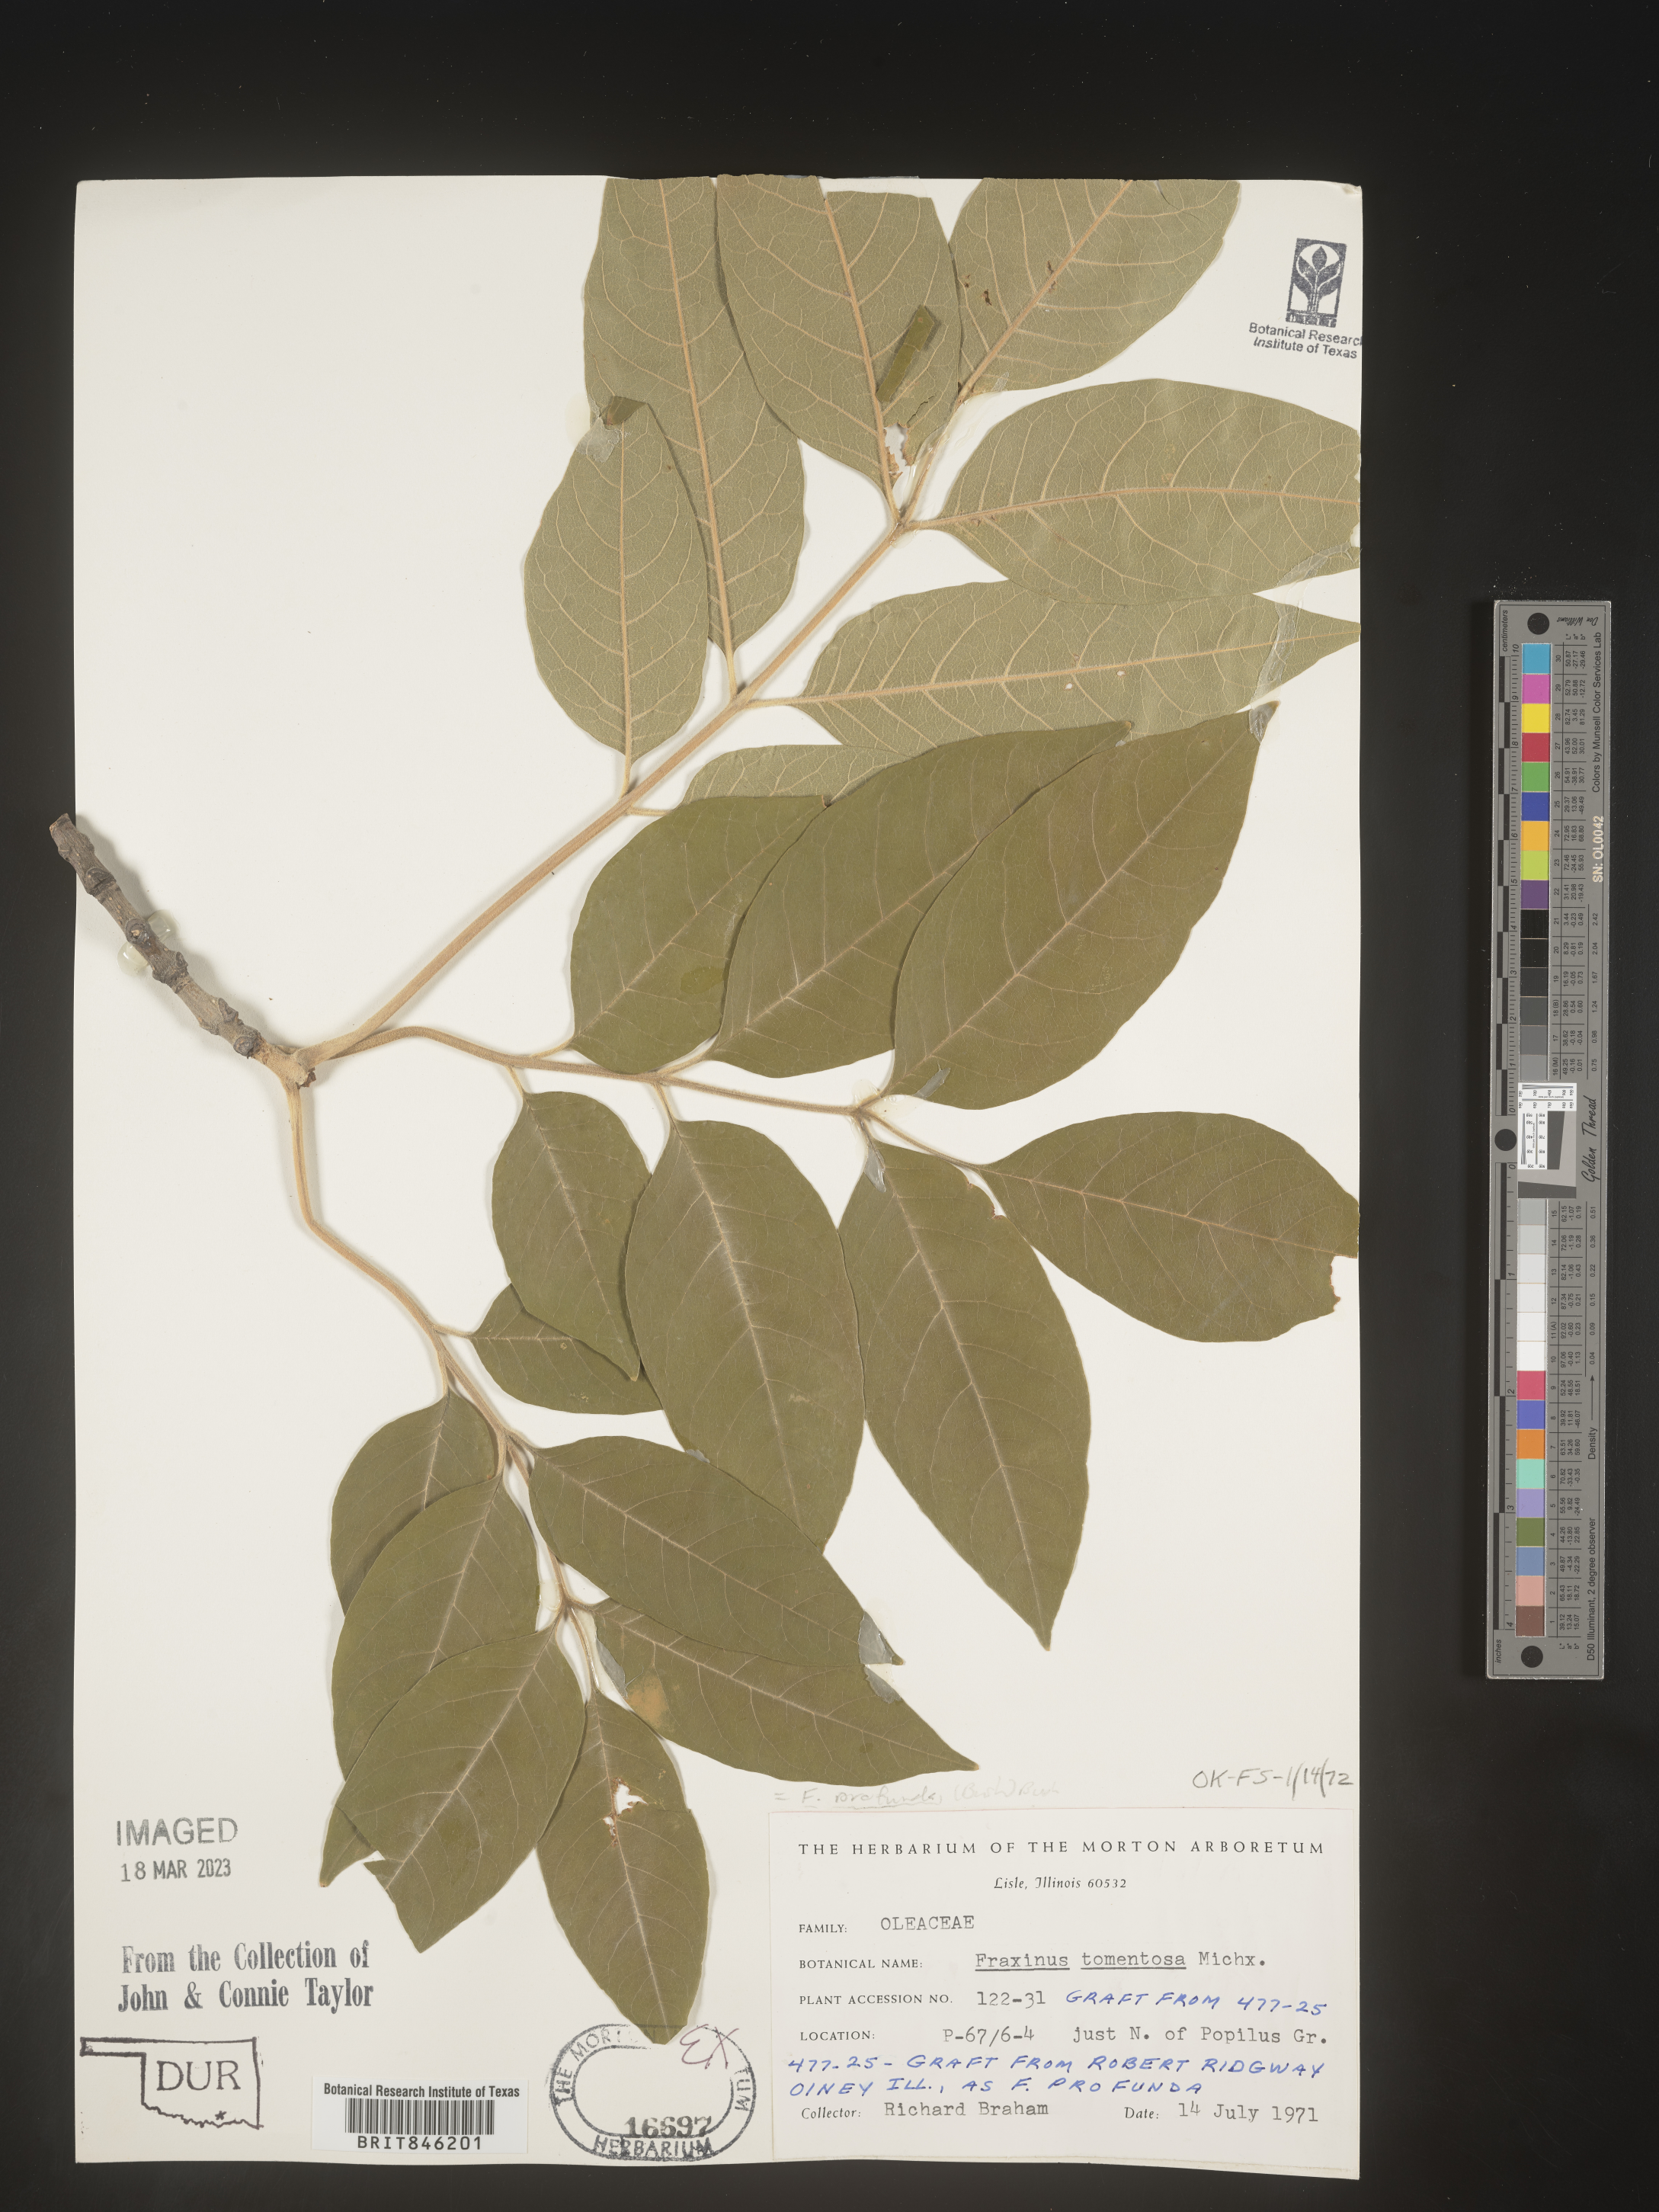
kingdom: Plantae
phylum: Tracheophyta
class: Magnoliopsida
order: Lamiales
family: Oleaceae
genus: Fraxinus
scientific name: Fraxinus profunda
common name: Pumpkin ash
